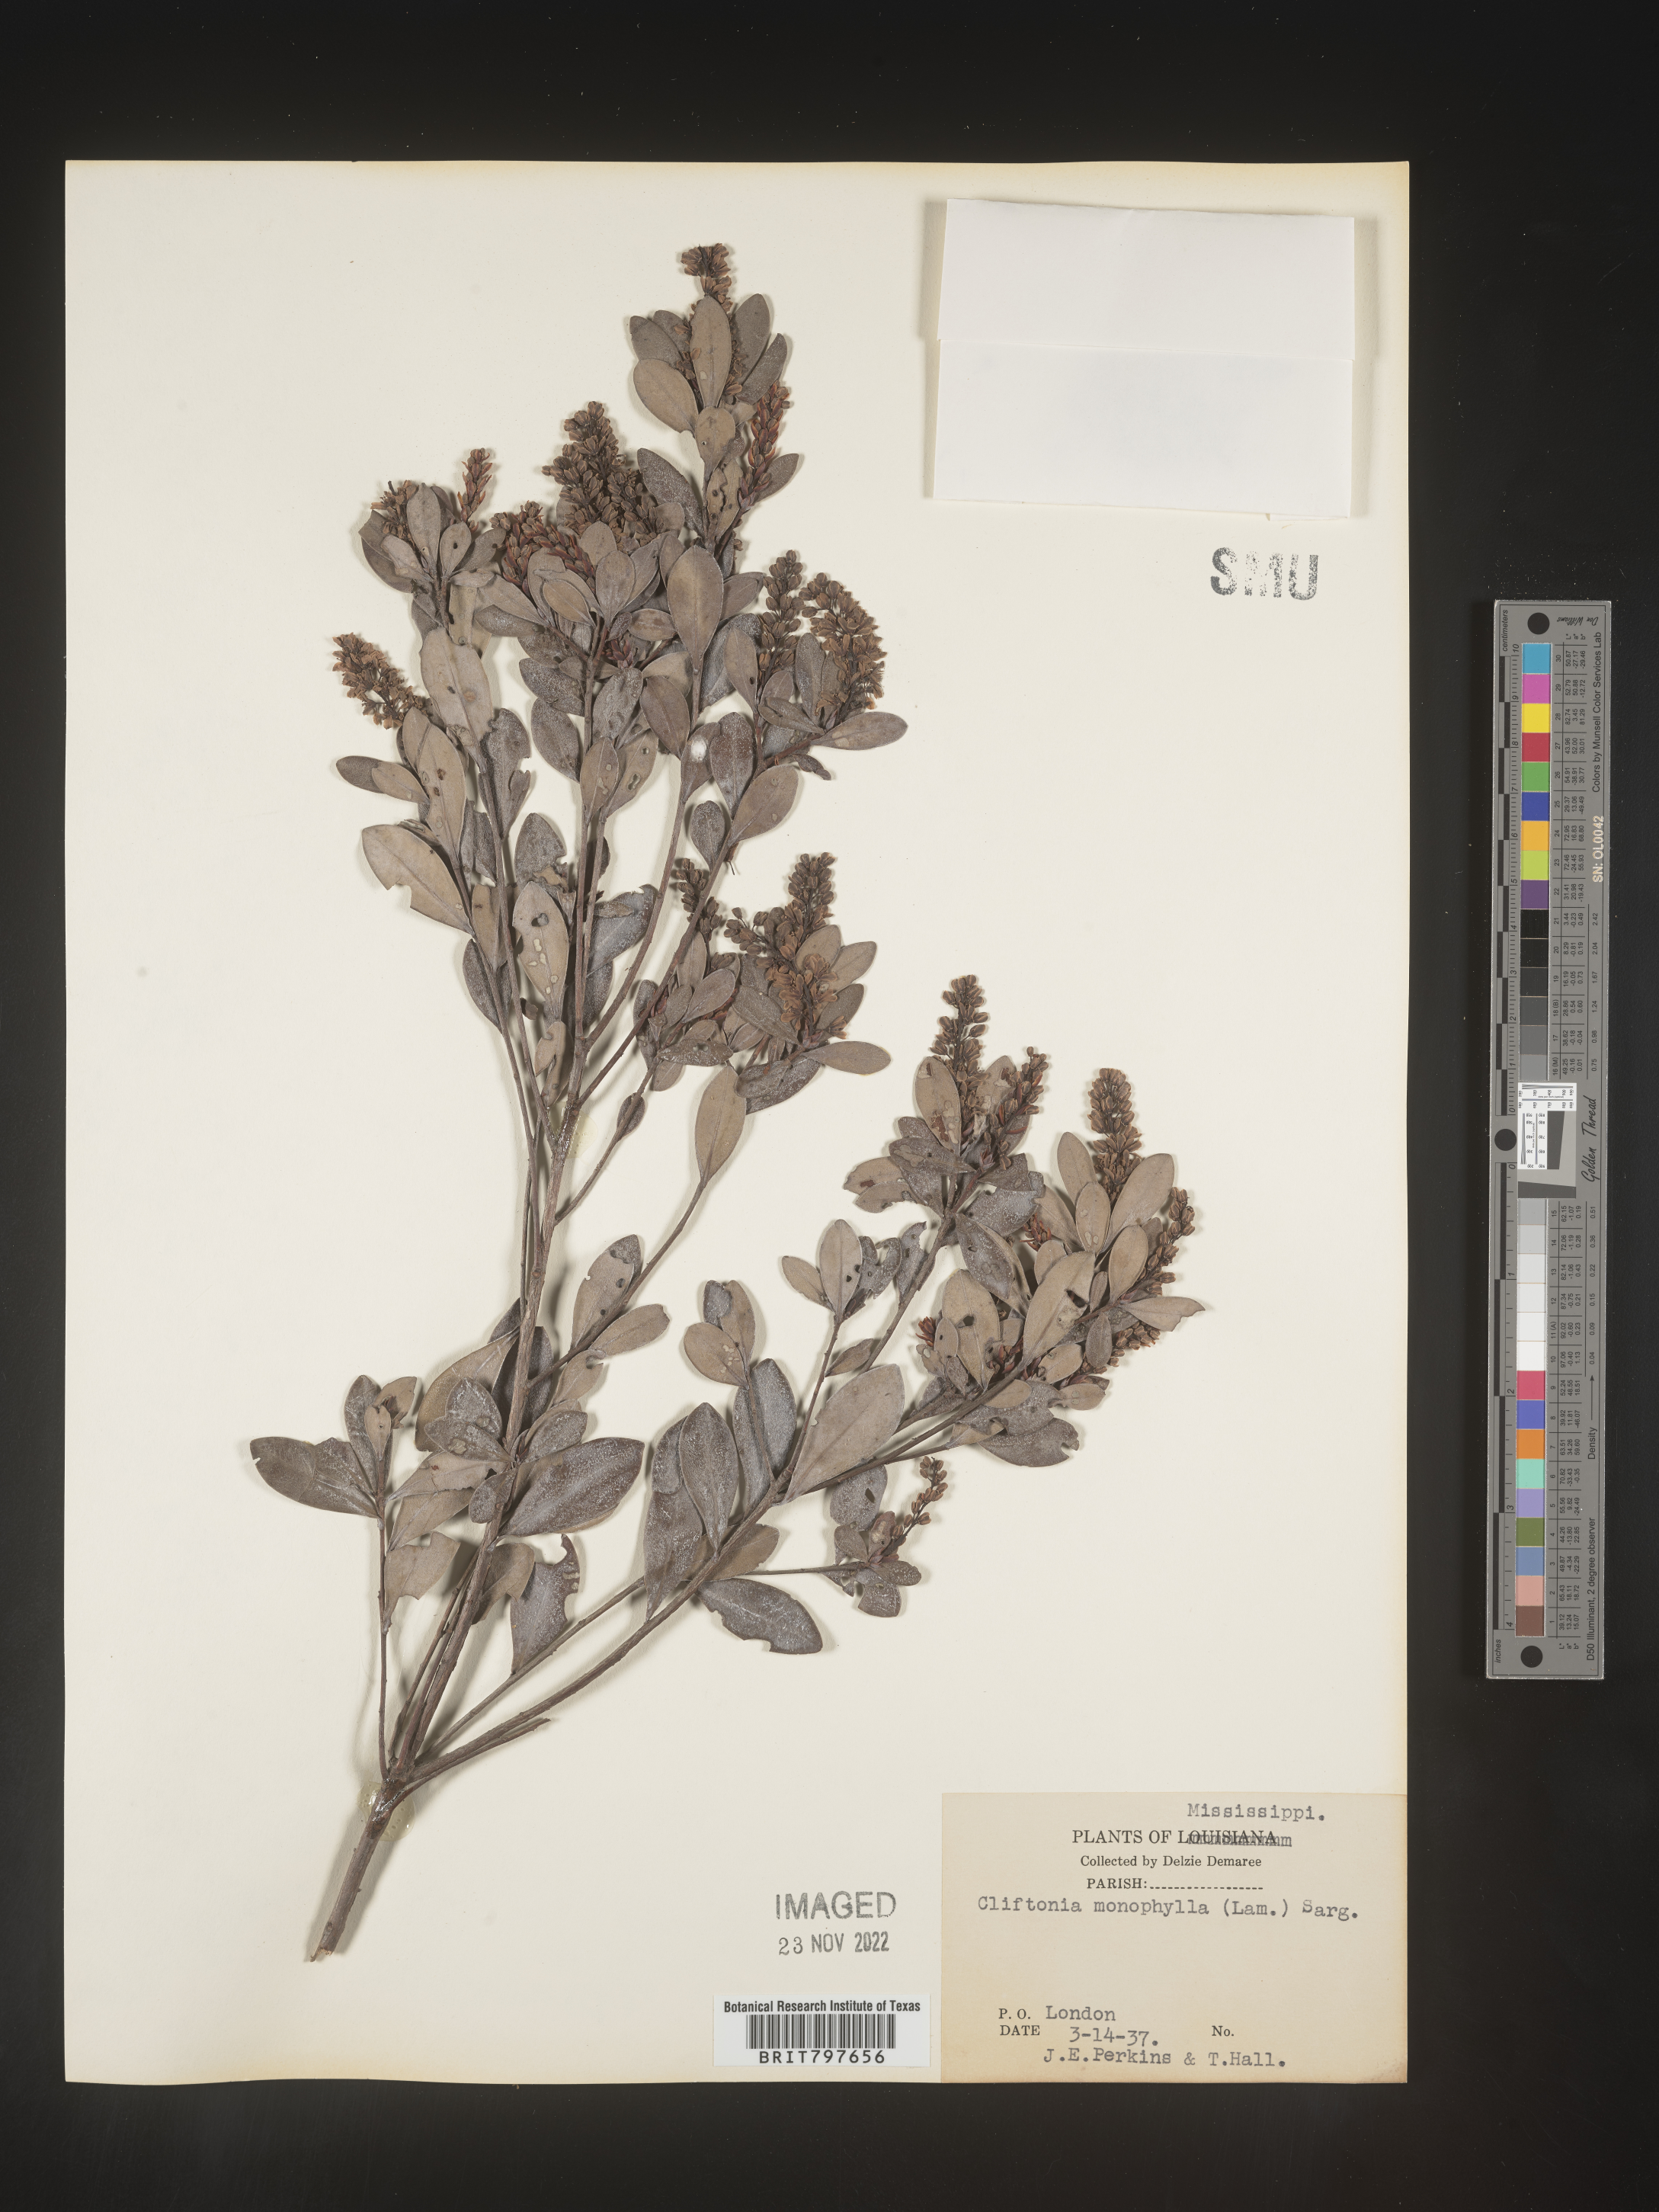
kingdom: Plantae
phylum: Tracheophyta
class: Magnoliopsida
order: Ericales
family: Cyrillaceae
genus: Cliftonia
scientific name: Cliftonia monophylla
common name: Titi
